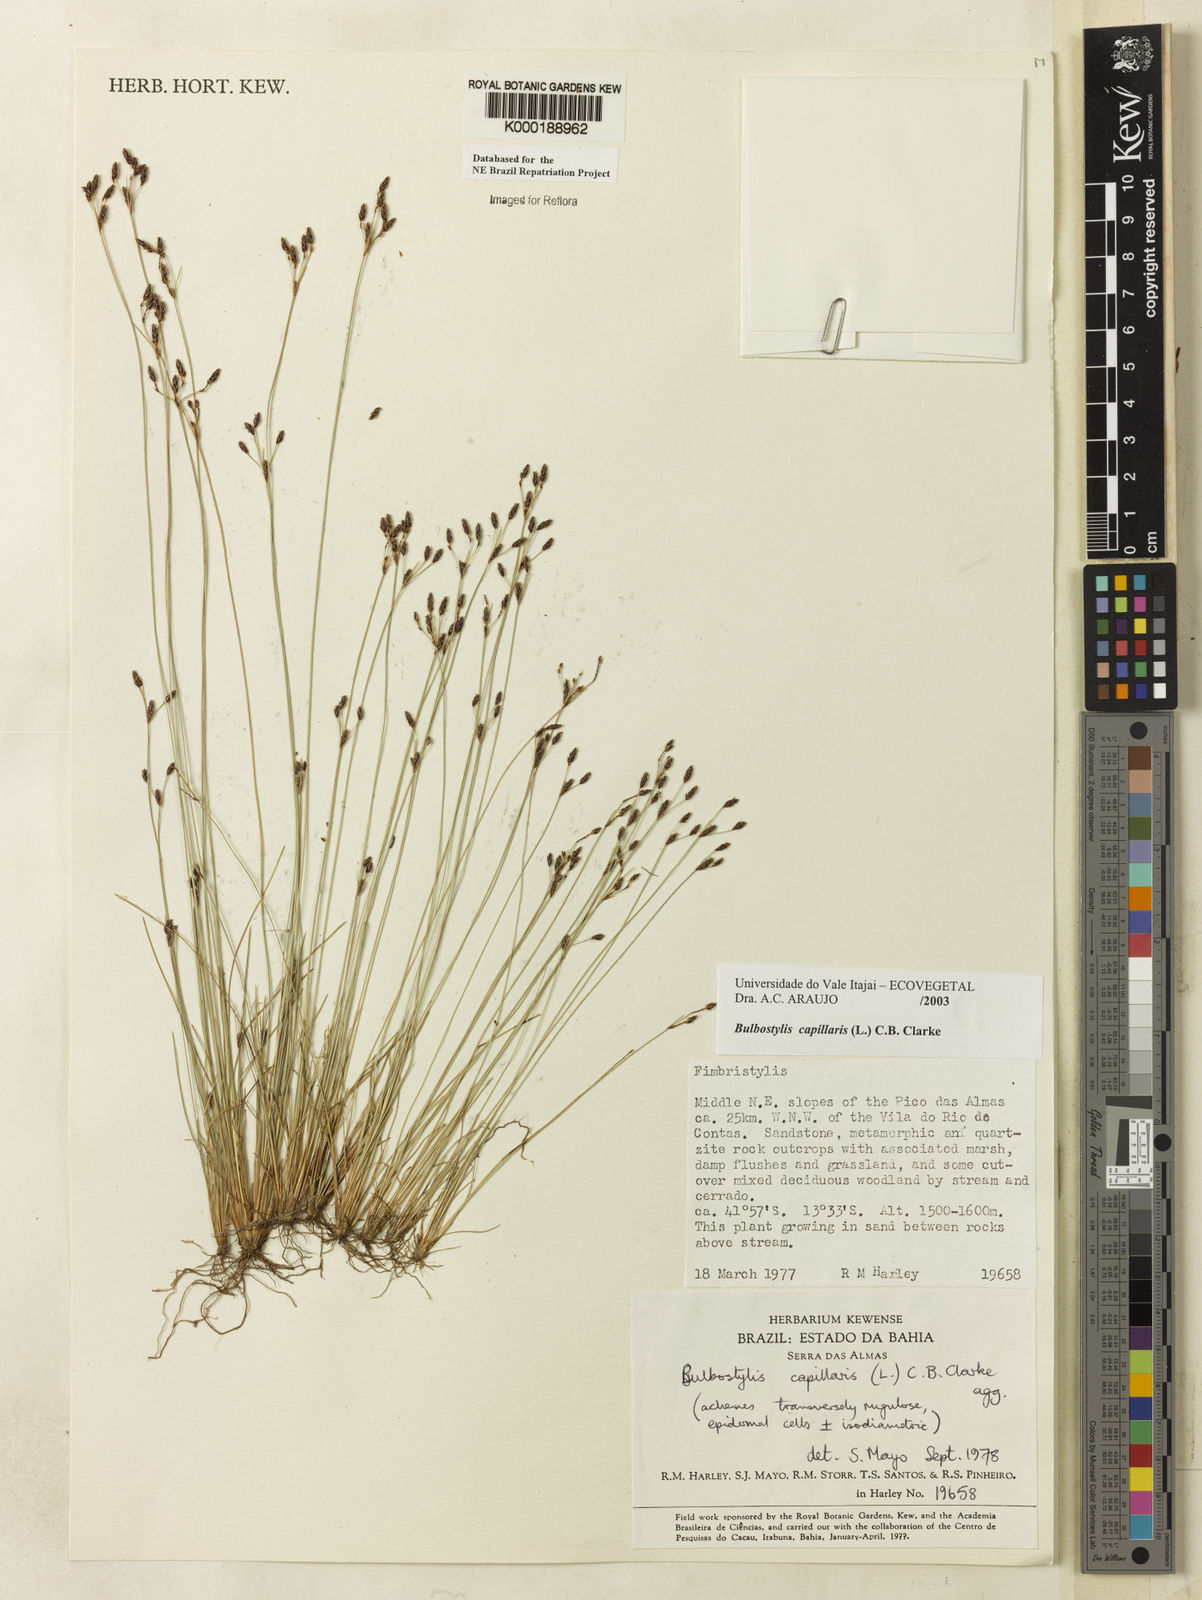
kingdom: Plantae
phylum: Tracheophyta
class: Liliopsida
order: Poales
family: Cyperaceae
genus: Bulbostylis
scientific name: Bulbostylis capillaris
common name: Densetuft hairsedge
